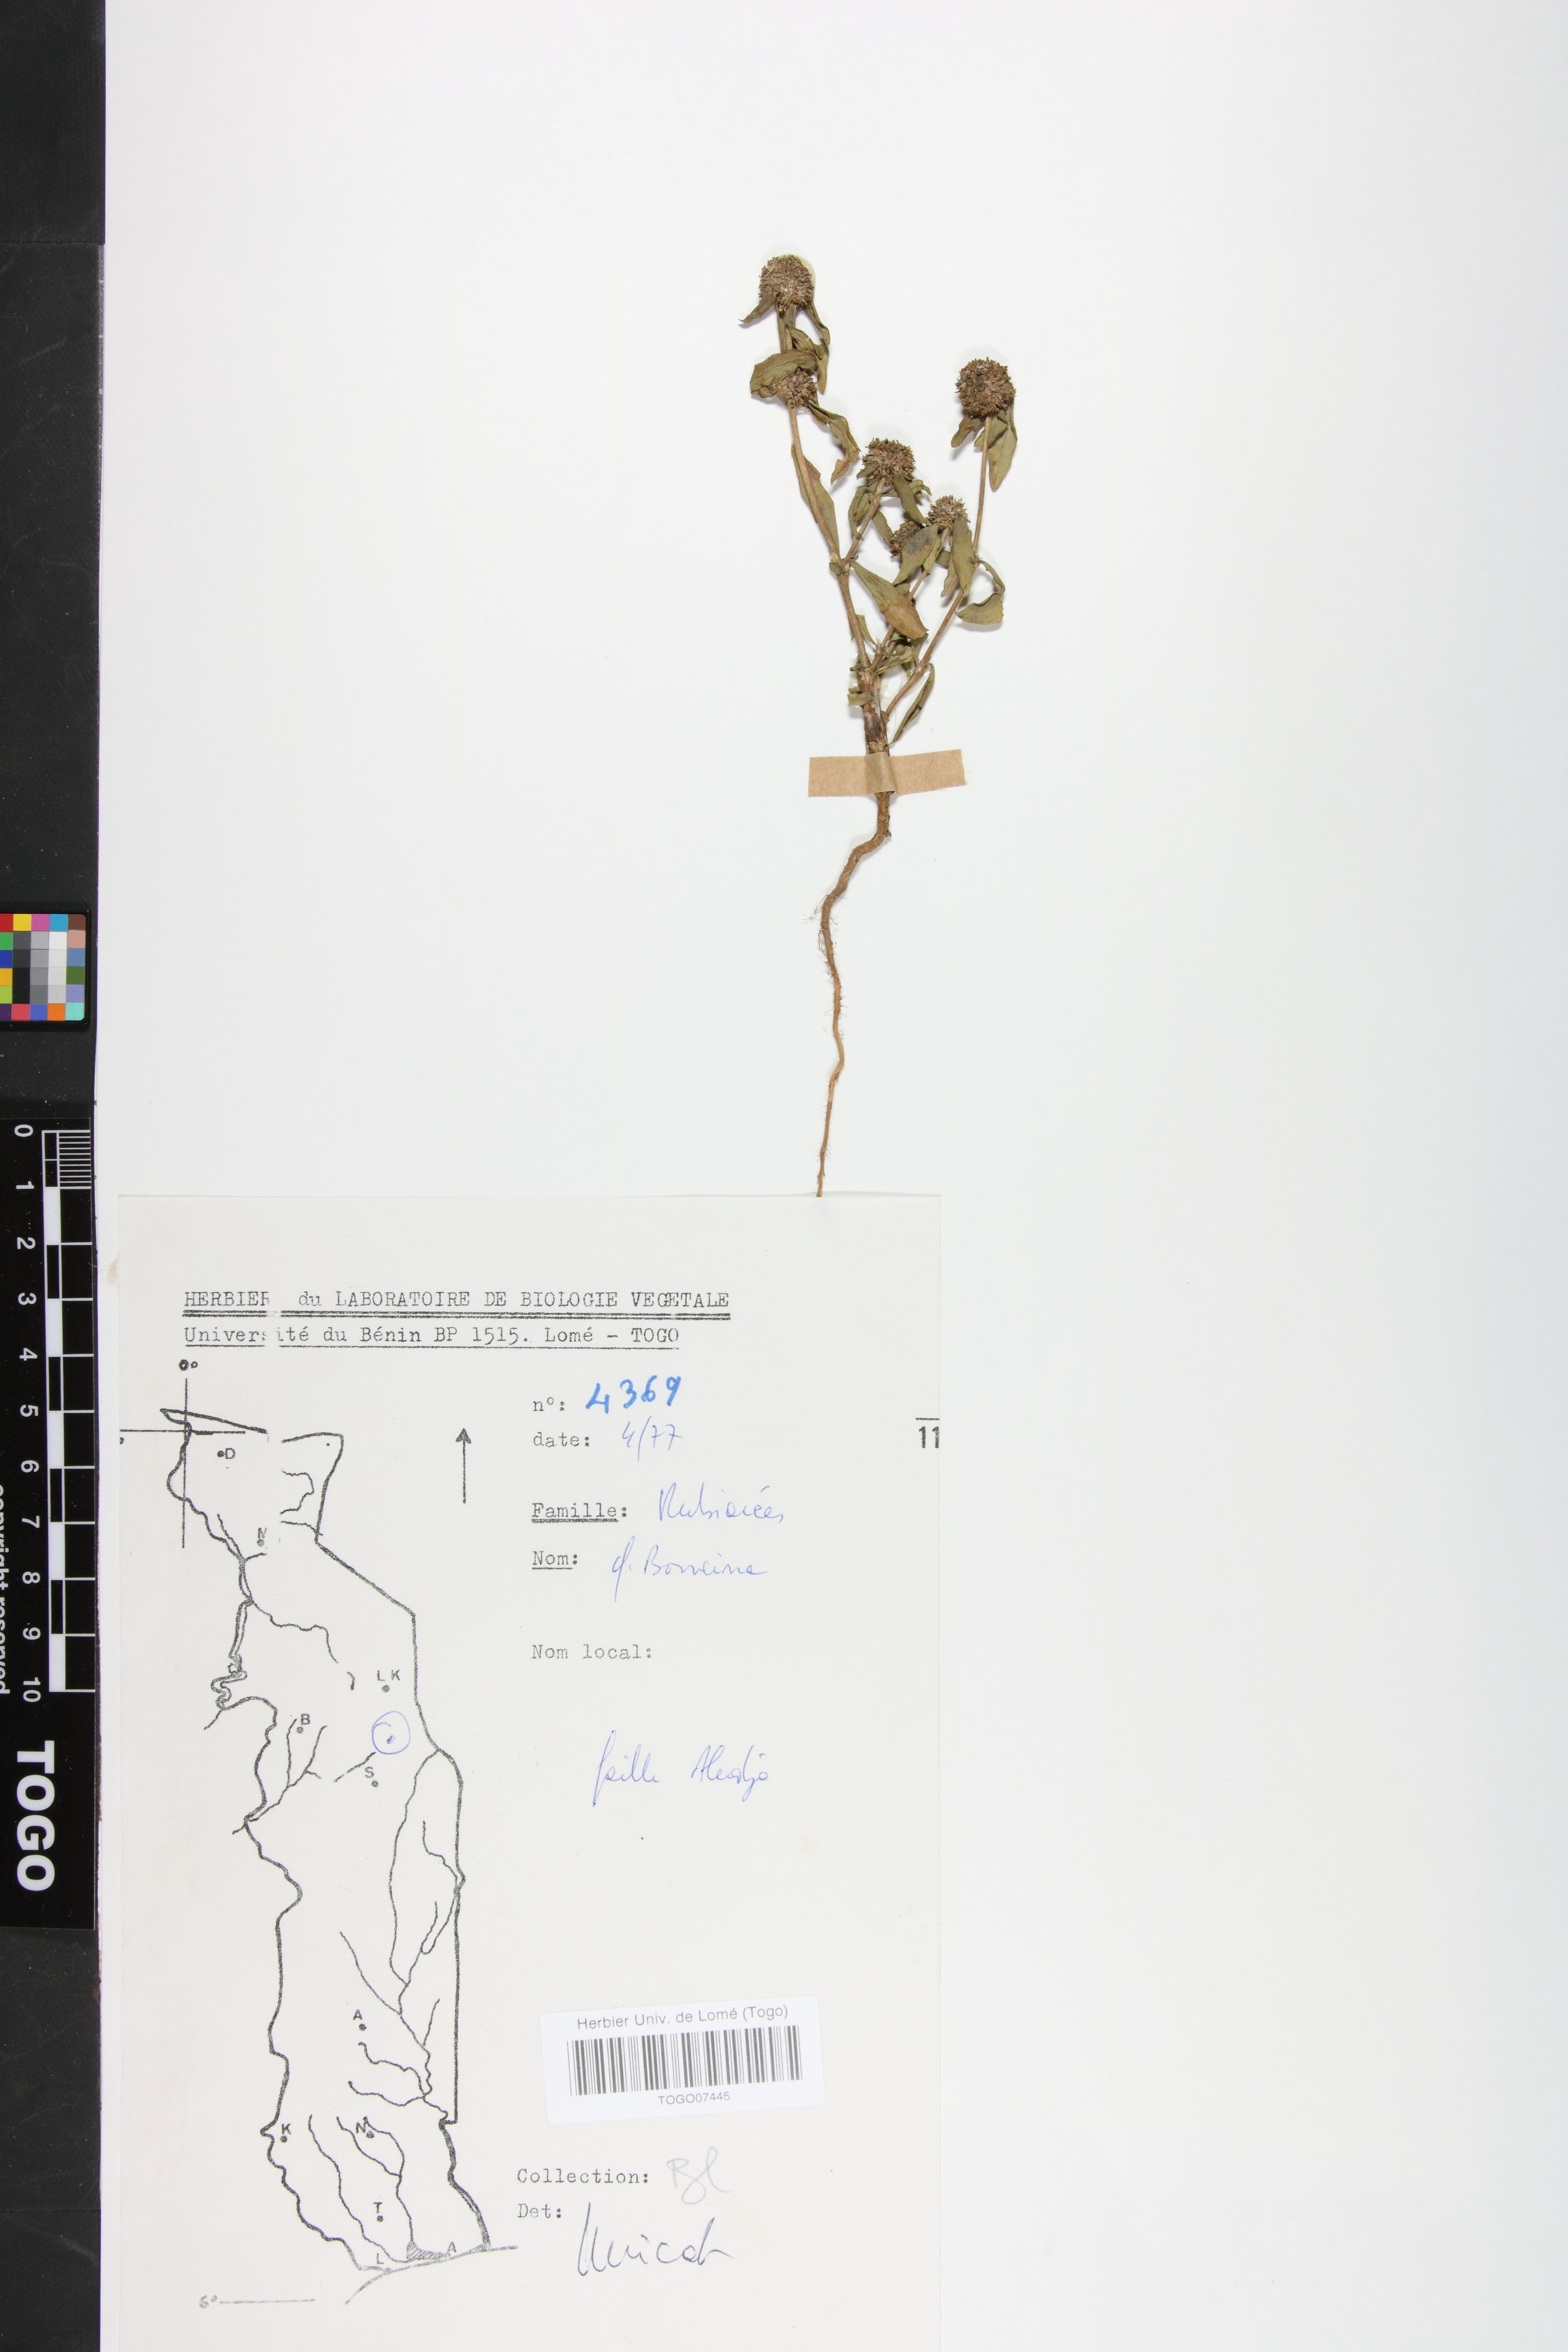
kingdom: Plantae
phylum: Tracheophyta
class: Magnoliopsida
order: Gentianales
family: Rubiaceae
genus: Mitracarpus
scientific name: Mitracarpus hirtus
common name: Tropical girdlepod
